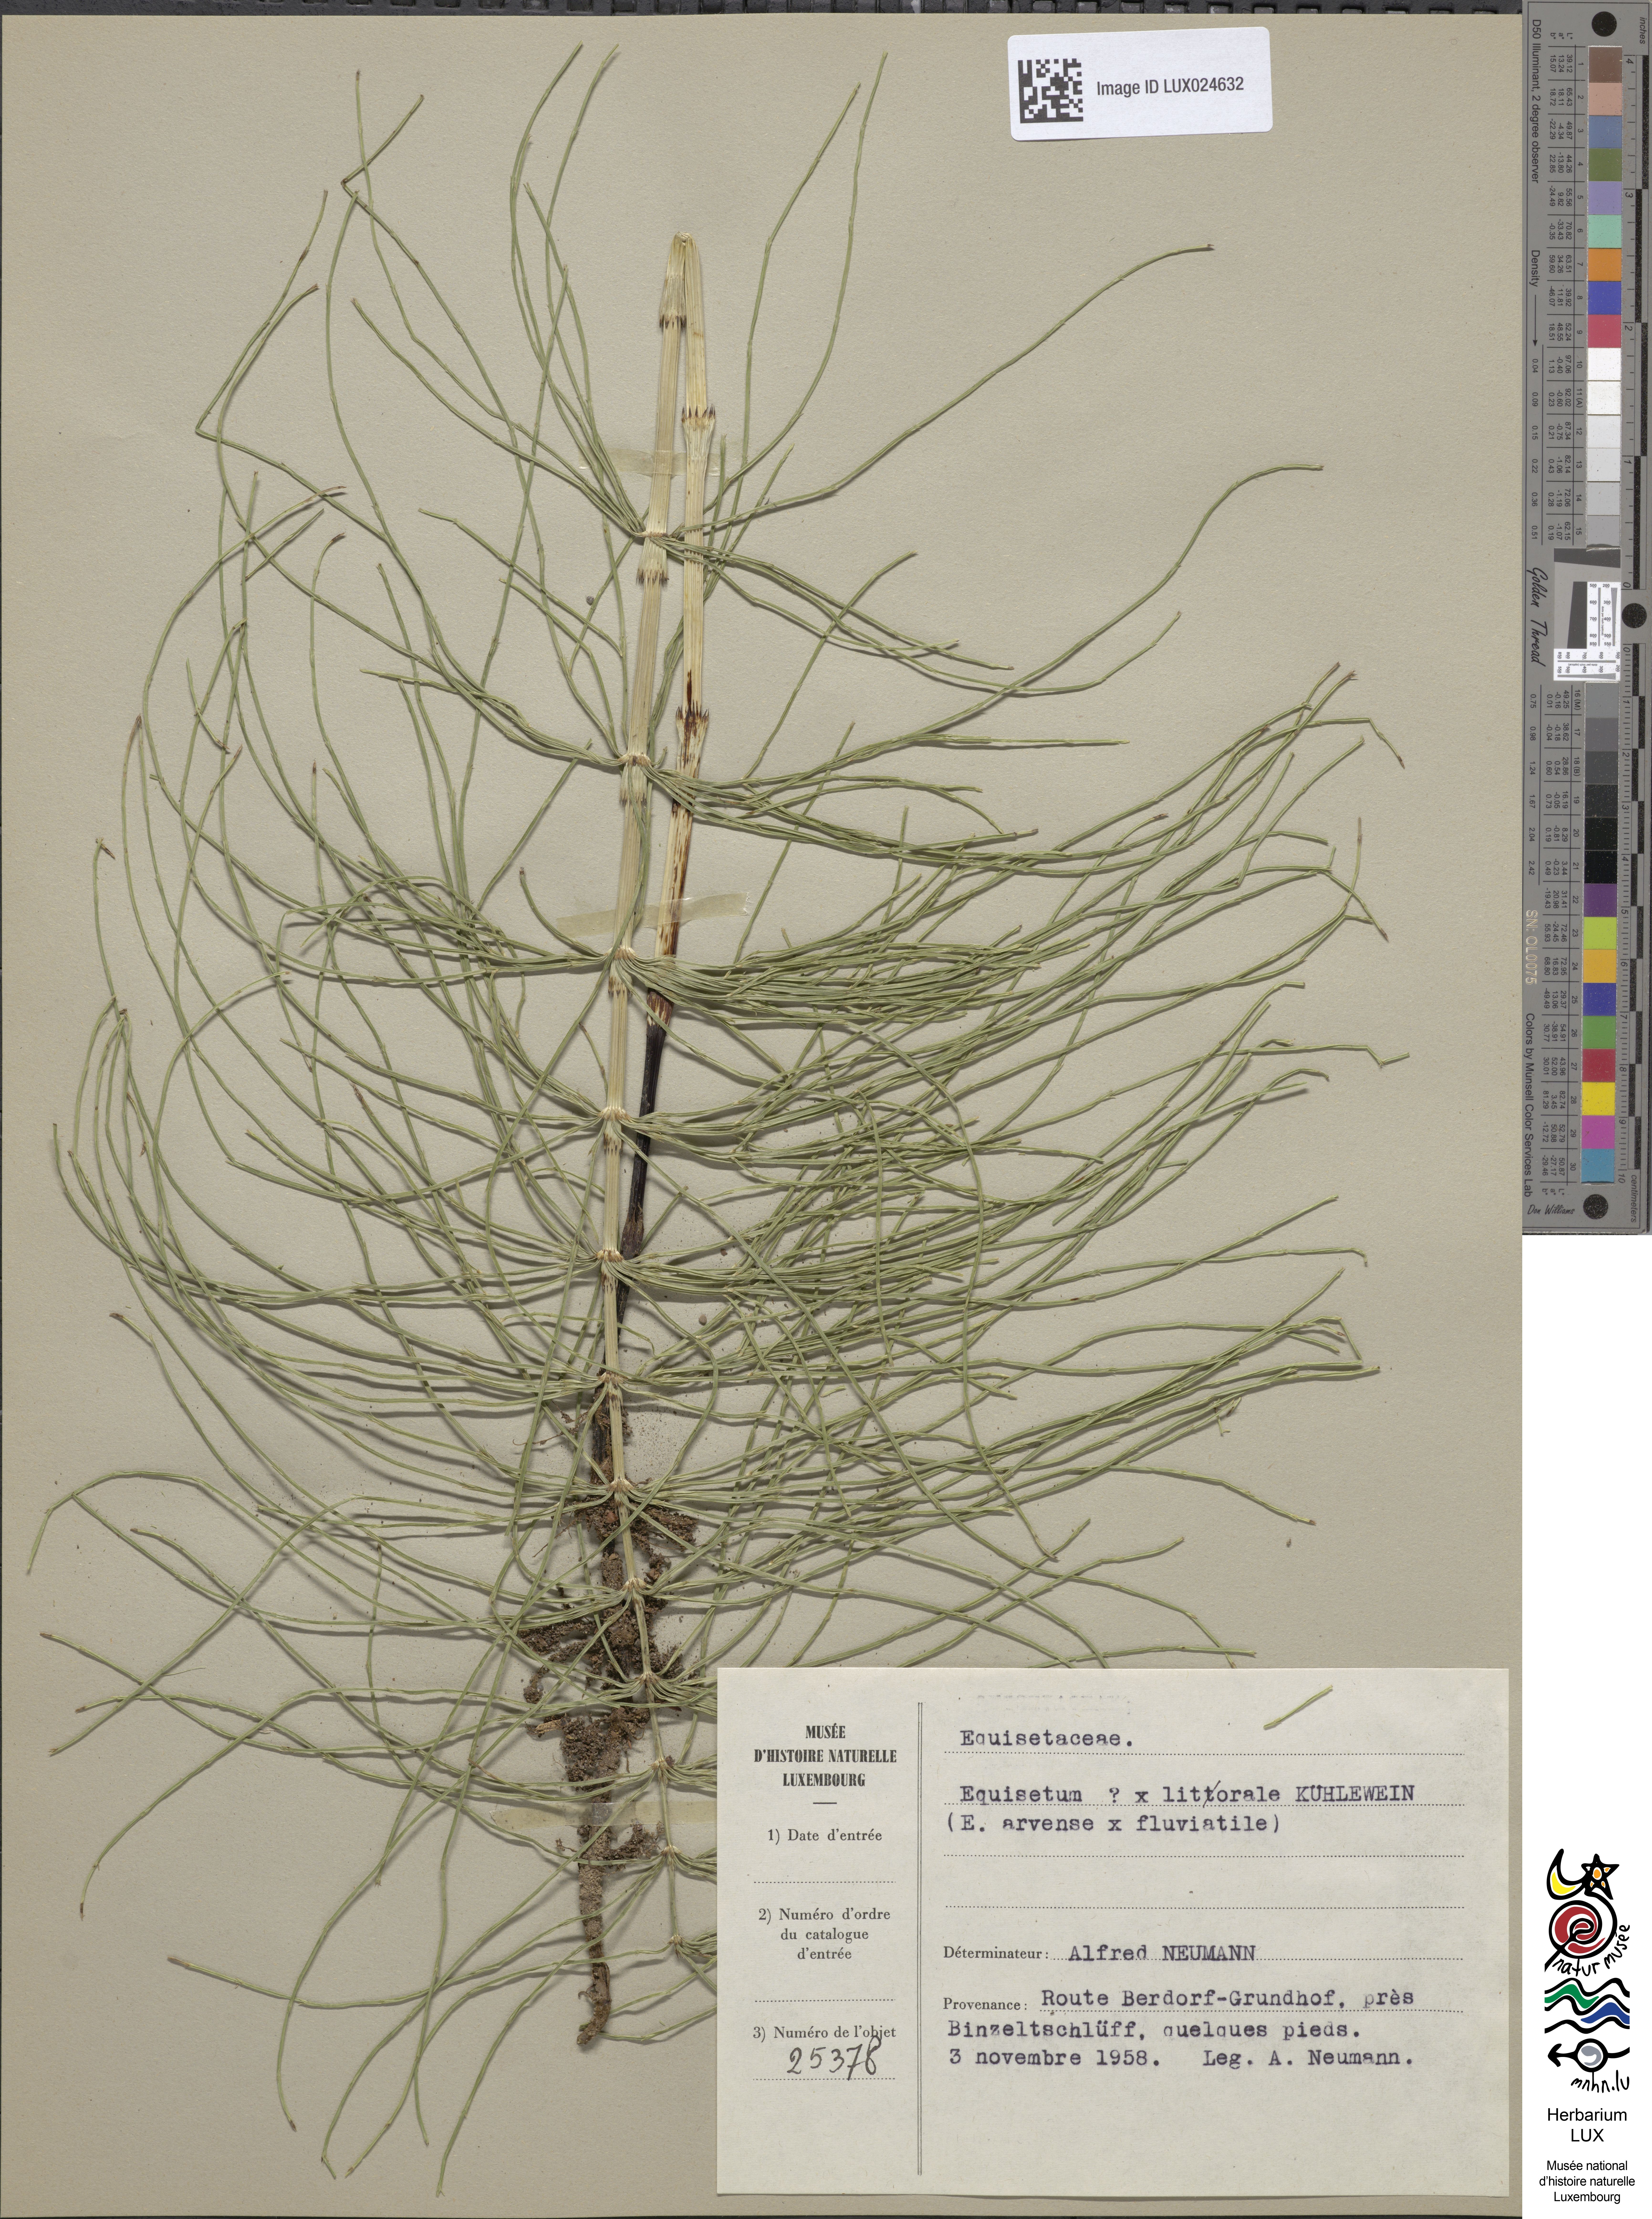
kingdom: Plantae
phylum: Tracheophyta
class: Polypodiopsida
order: Equisetales
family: Equisetaceae
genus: Equisetum
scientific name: Equisetum arvense
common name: Field horsetail
